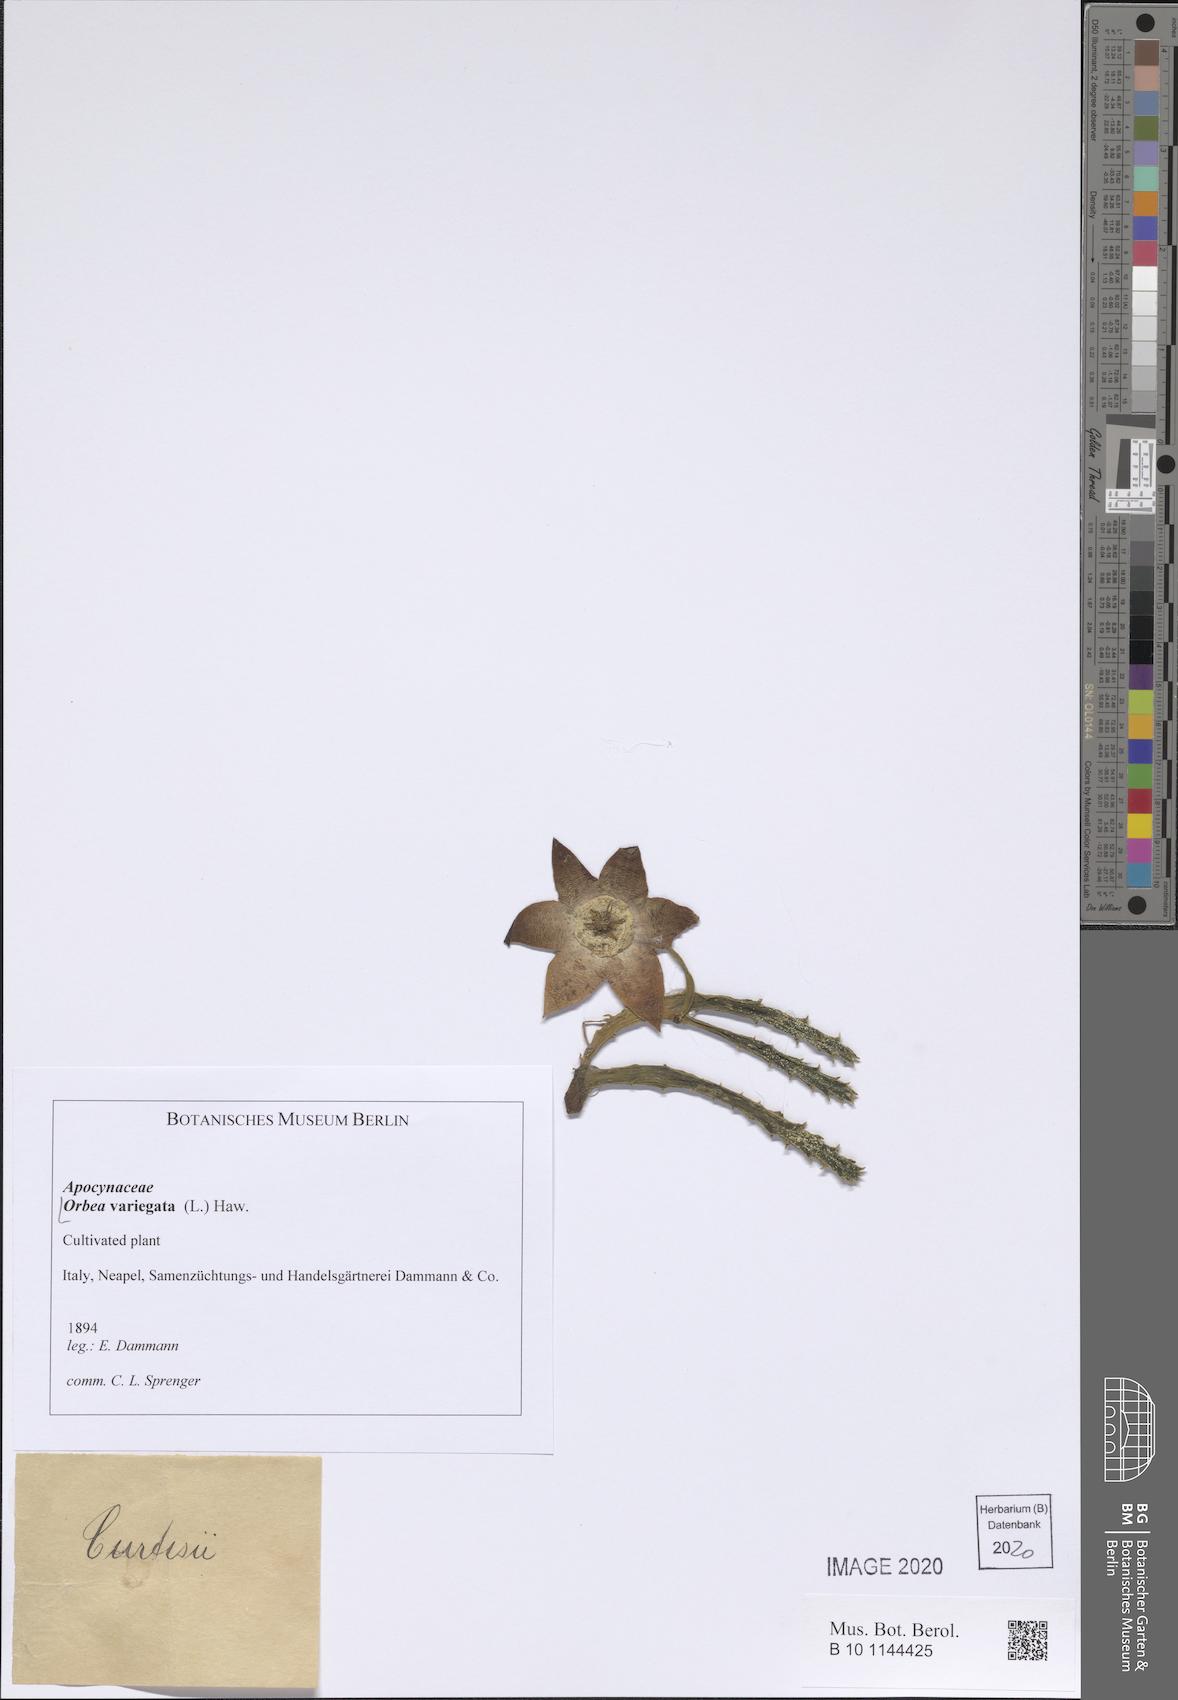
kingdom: Plantae
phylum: Tracheophyta
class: Magnoliopsida
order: Gentianales
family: Apocynaceae
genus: Ceropegia
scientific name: Ceropegia mixta
